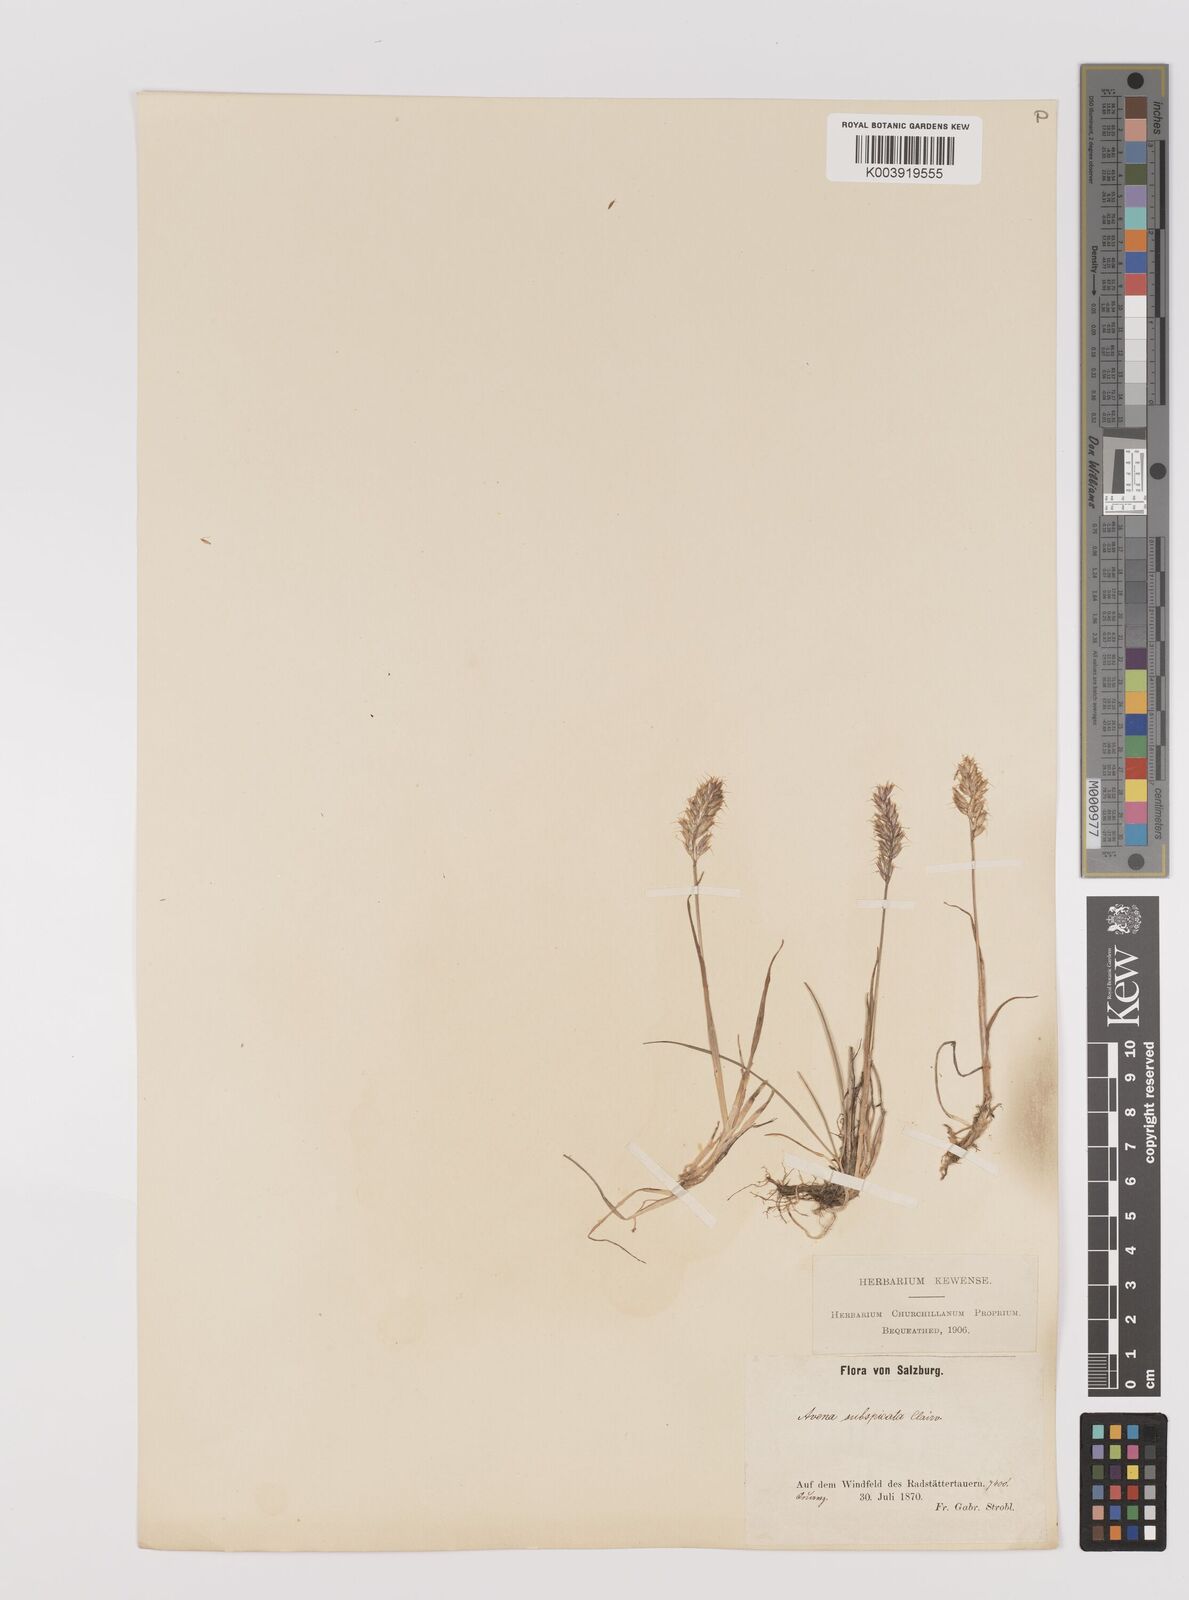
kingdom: Plantae
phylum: Tracheophyta
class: Liliopsida
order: Poales
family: Poaceae
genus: Koeleria
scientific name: Koeleria spicata
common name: Mountain trisetum
